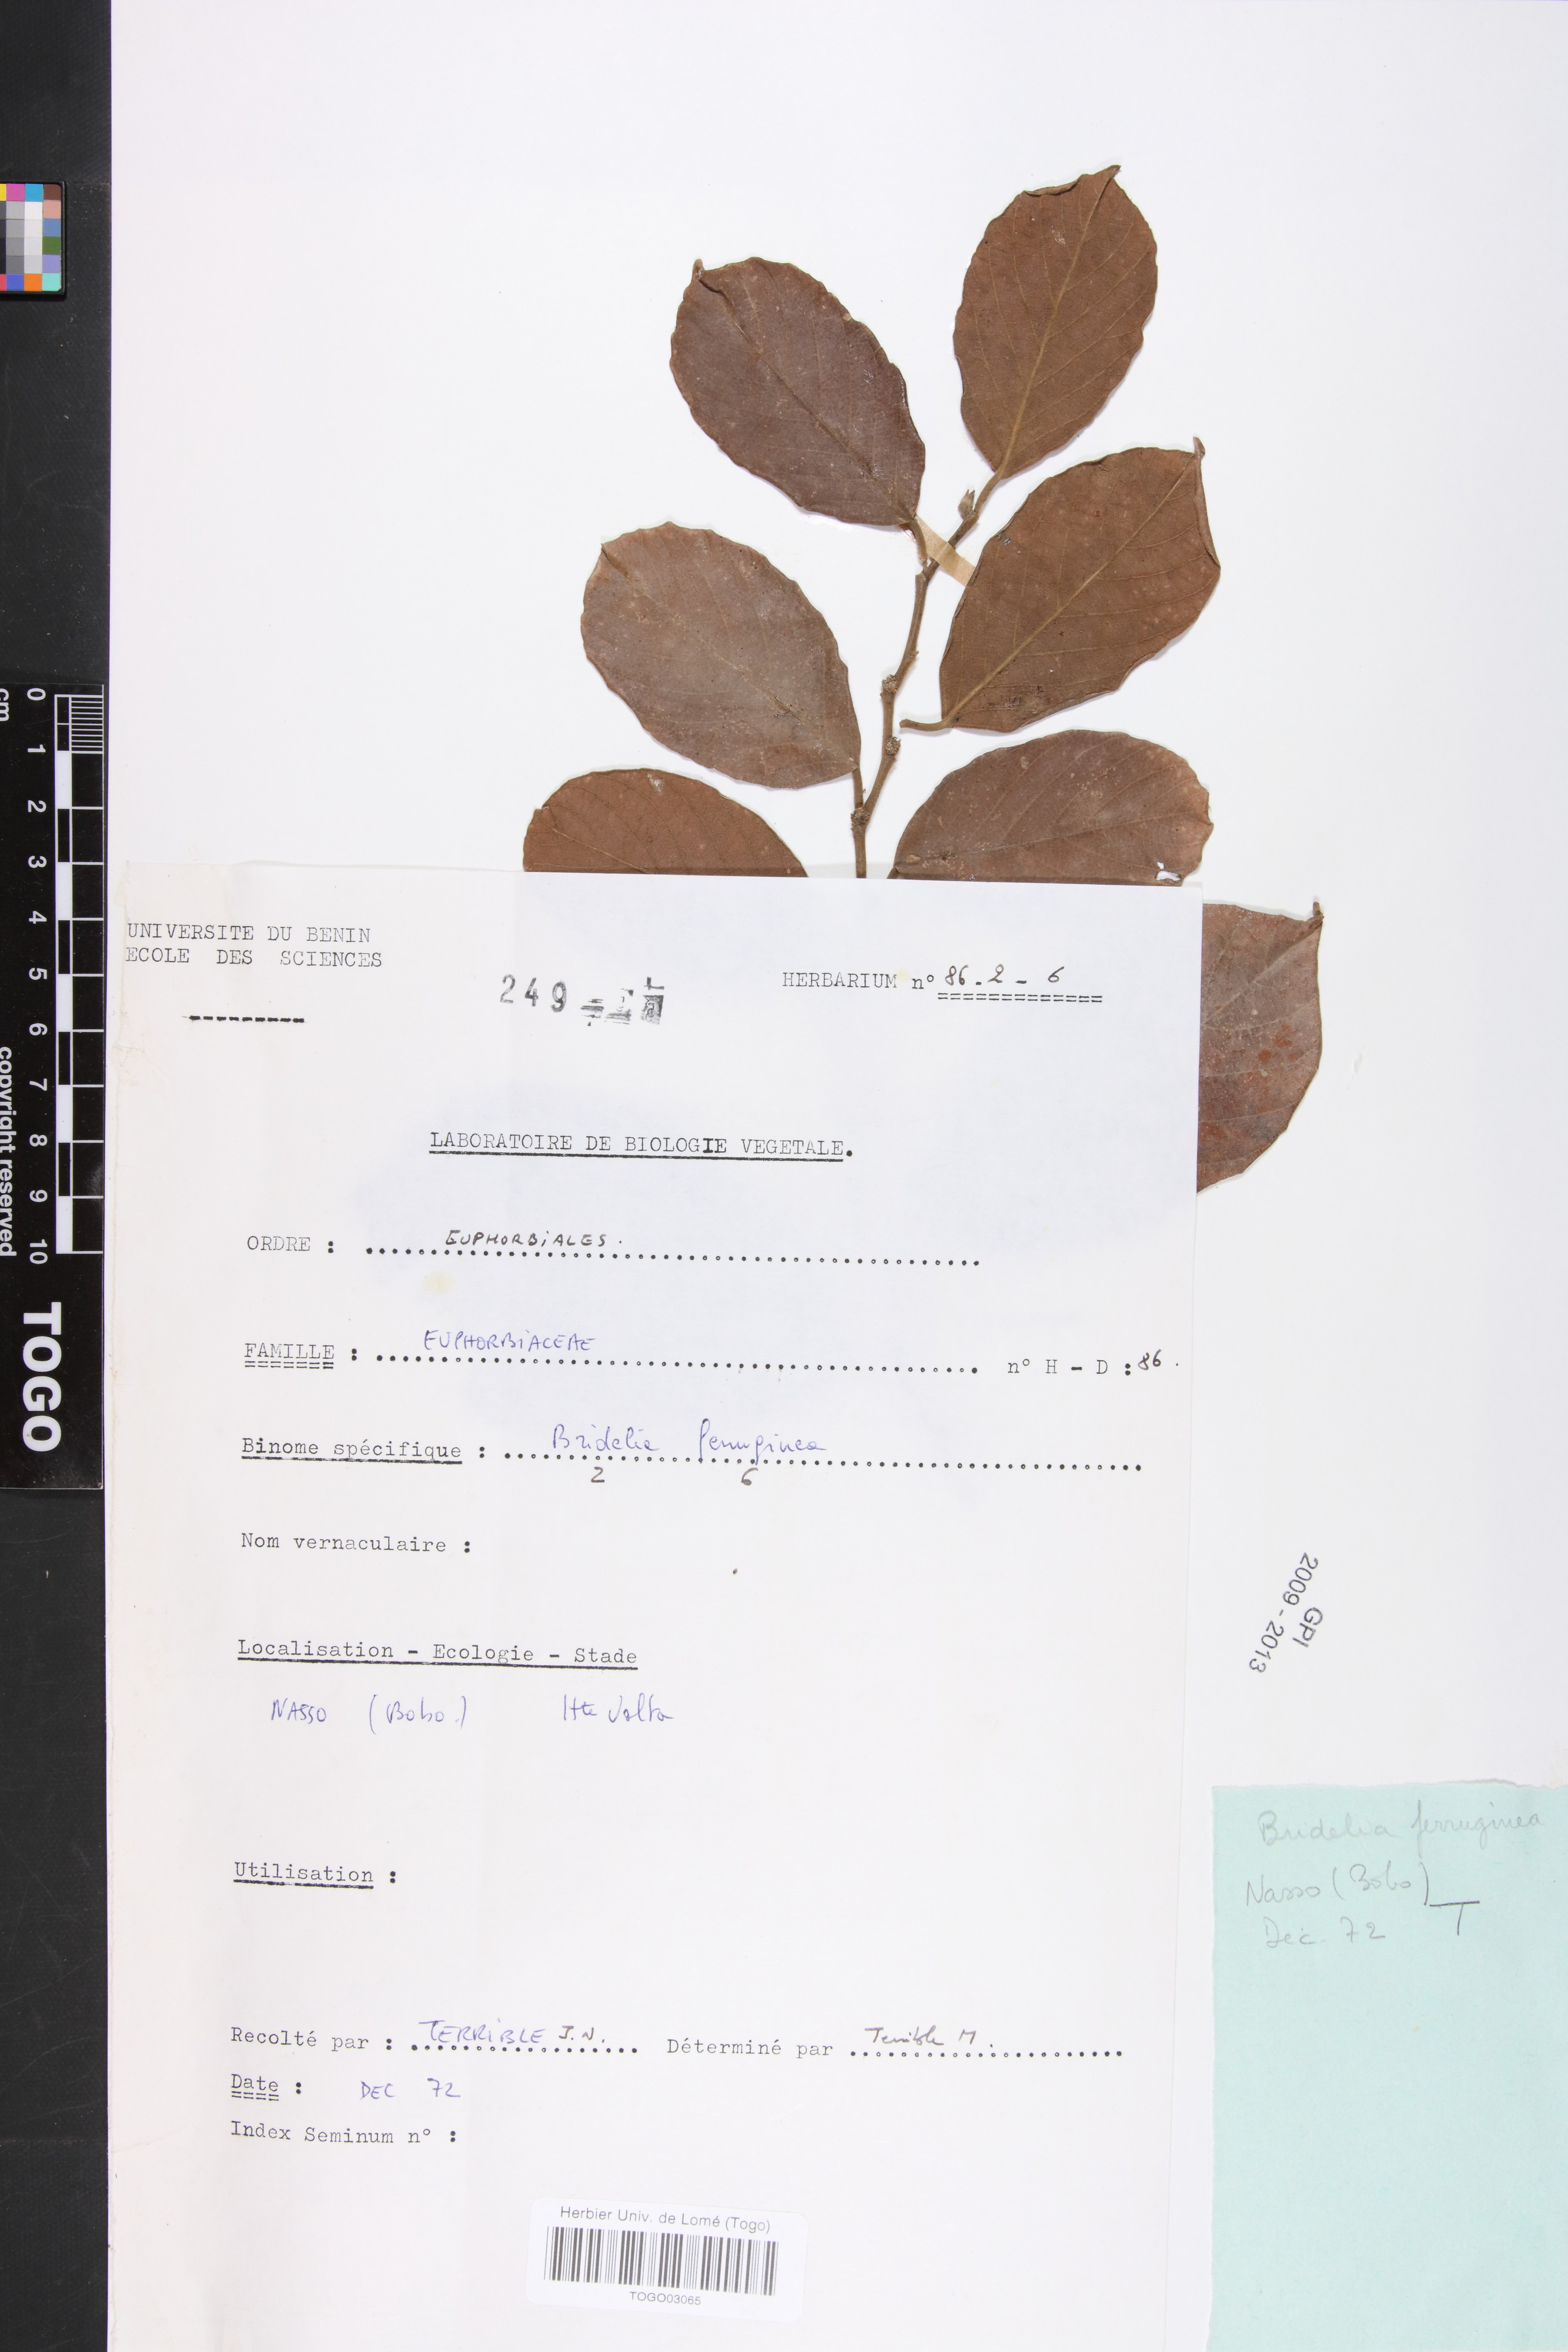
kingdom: Plantae
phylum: Tracheophyta
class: Magnoliopsida
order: Malpighiales
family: Phyllanthaceae
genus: Bridelia
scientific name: Bridelia ferruginea
